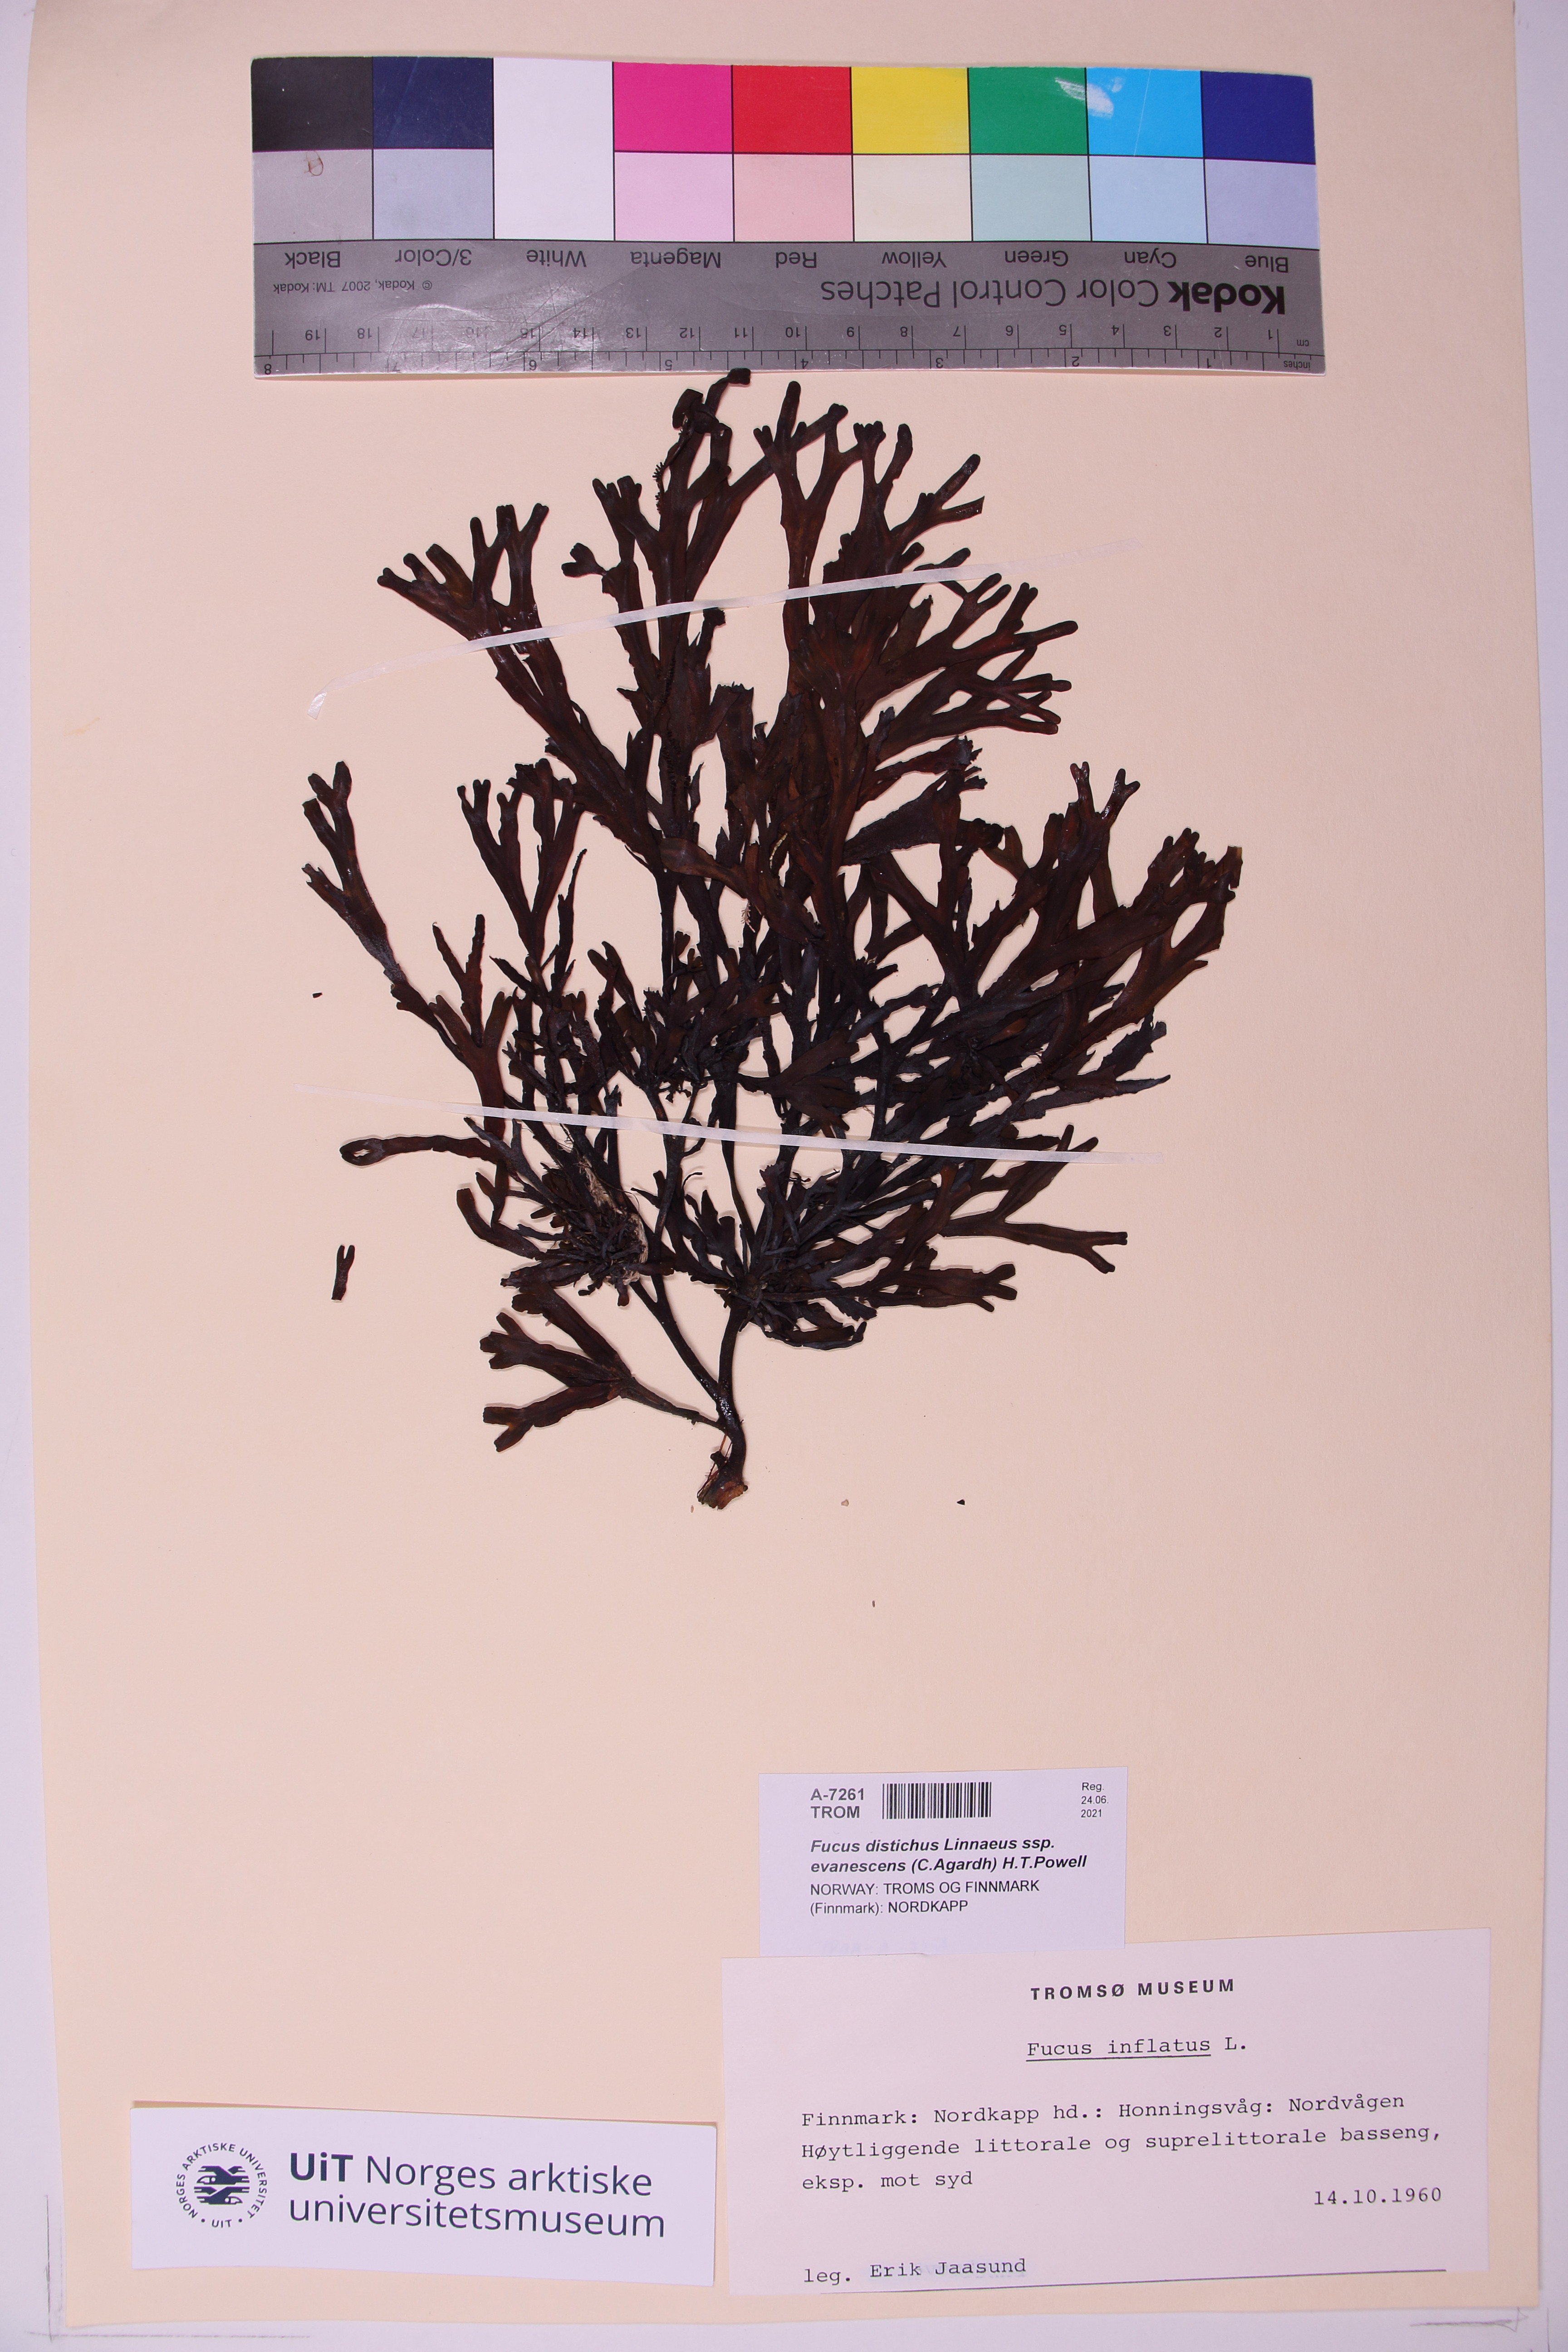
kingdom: Chromista
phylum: Ochrophyta
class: Phaeophyceae
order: Fucales
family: Fucaceae
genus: Fucus
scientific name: Fucus evanescens
